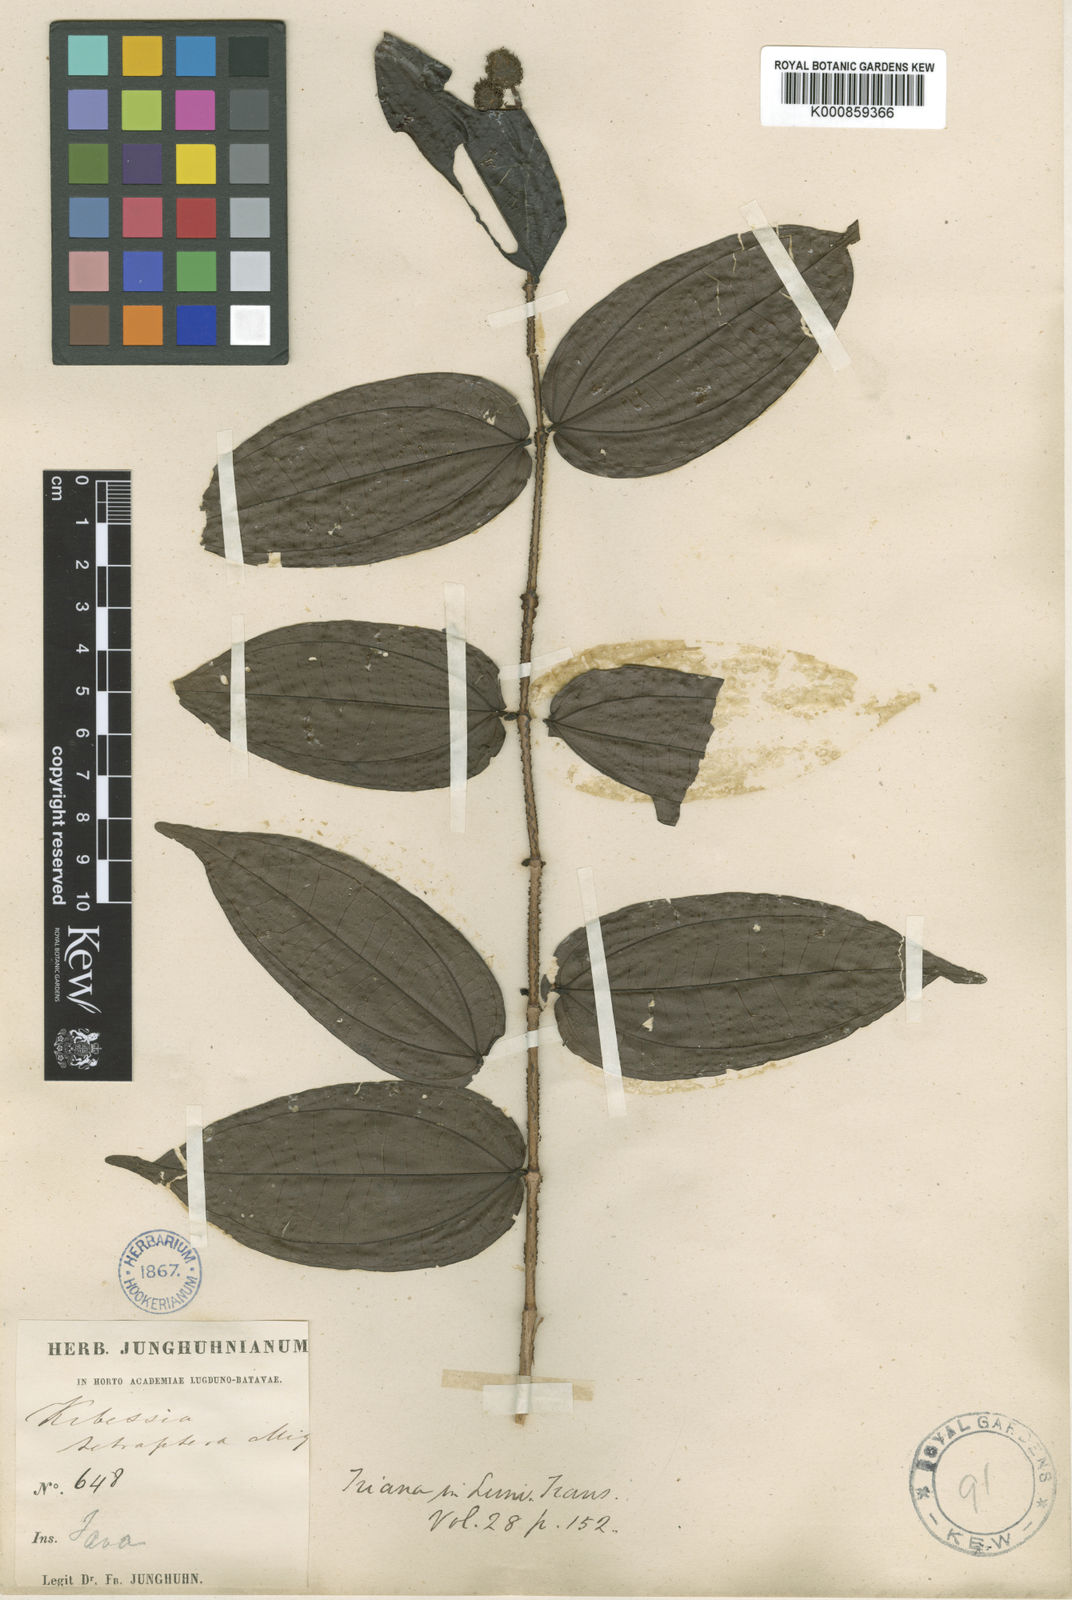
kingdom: Plantae
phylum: Tracheophyta
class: Magnoliopsida
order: Myrtales
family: Melastomataceae
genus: Pternandra
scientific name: Pternandra azurea
